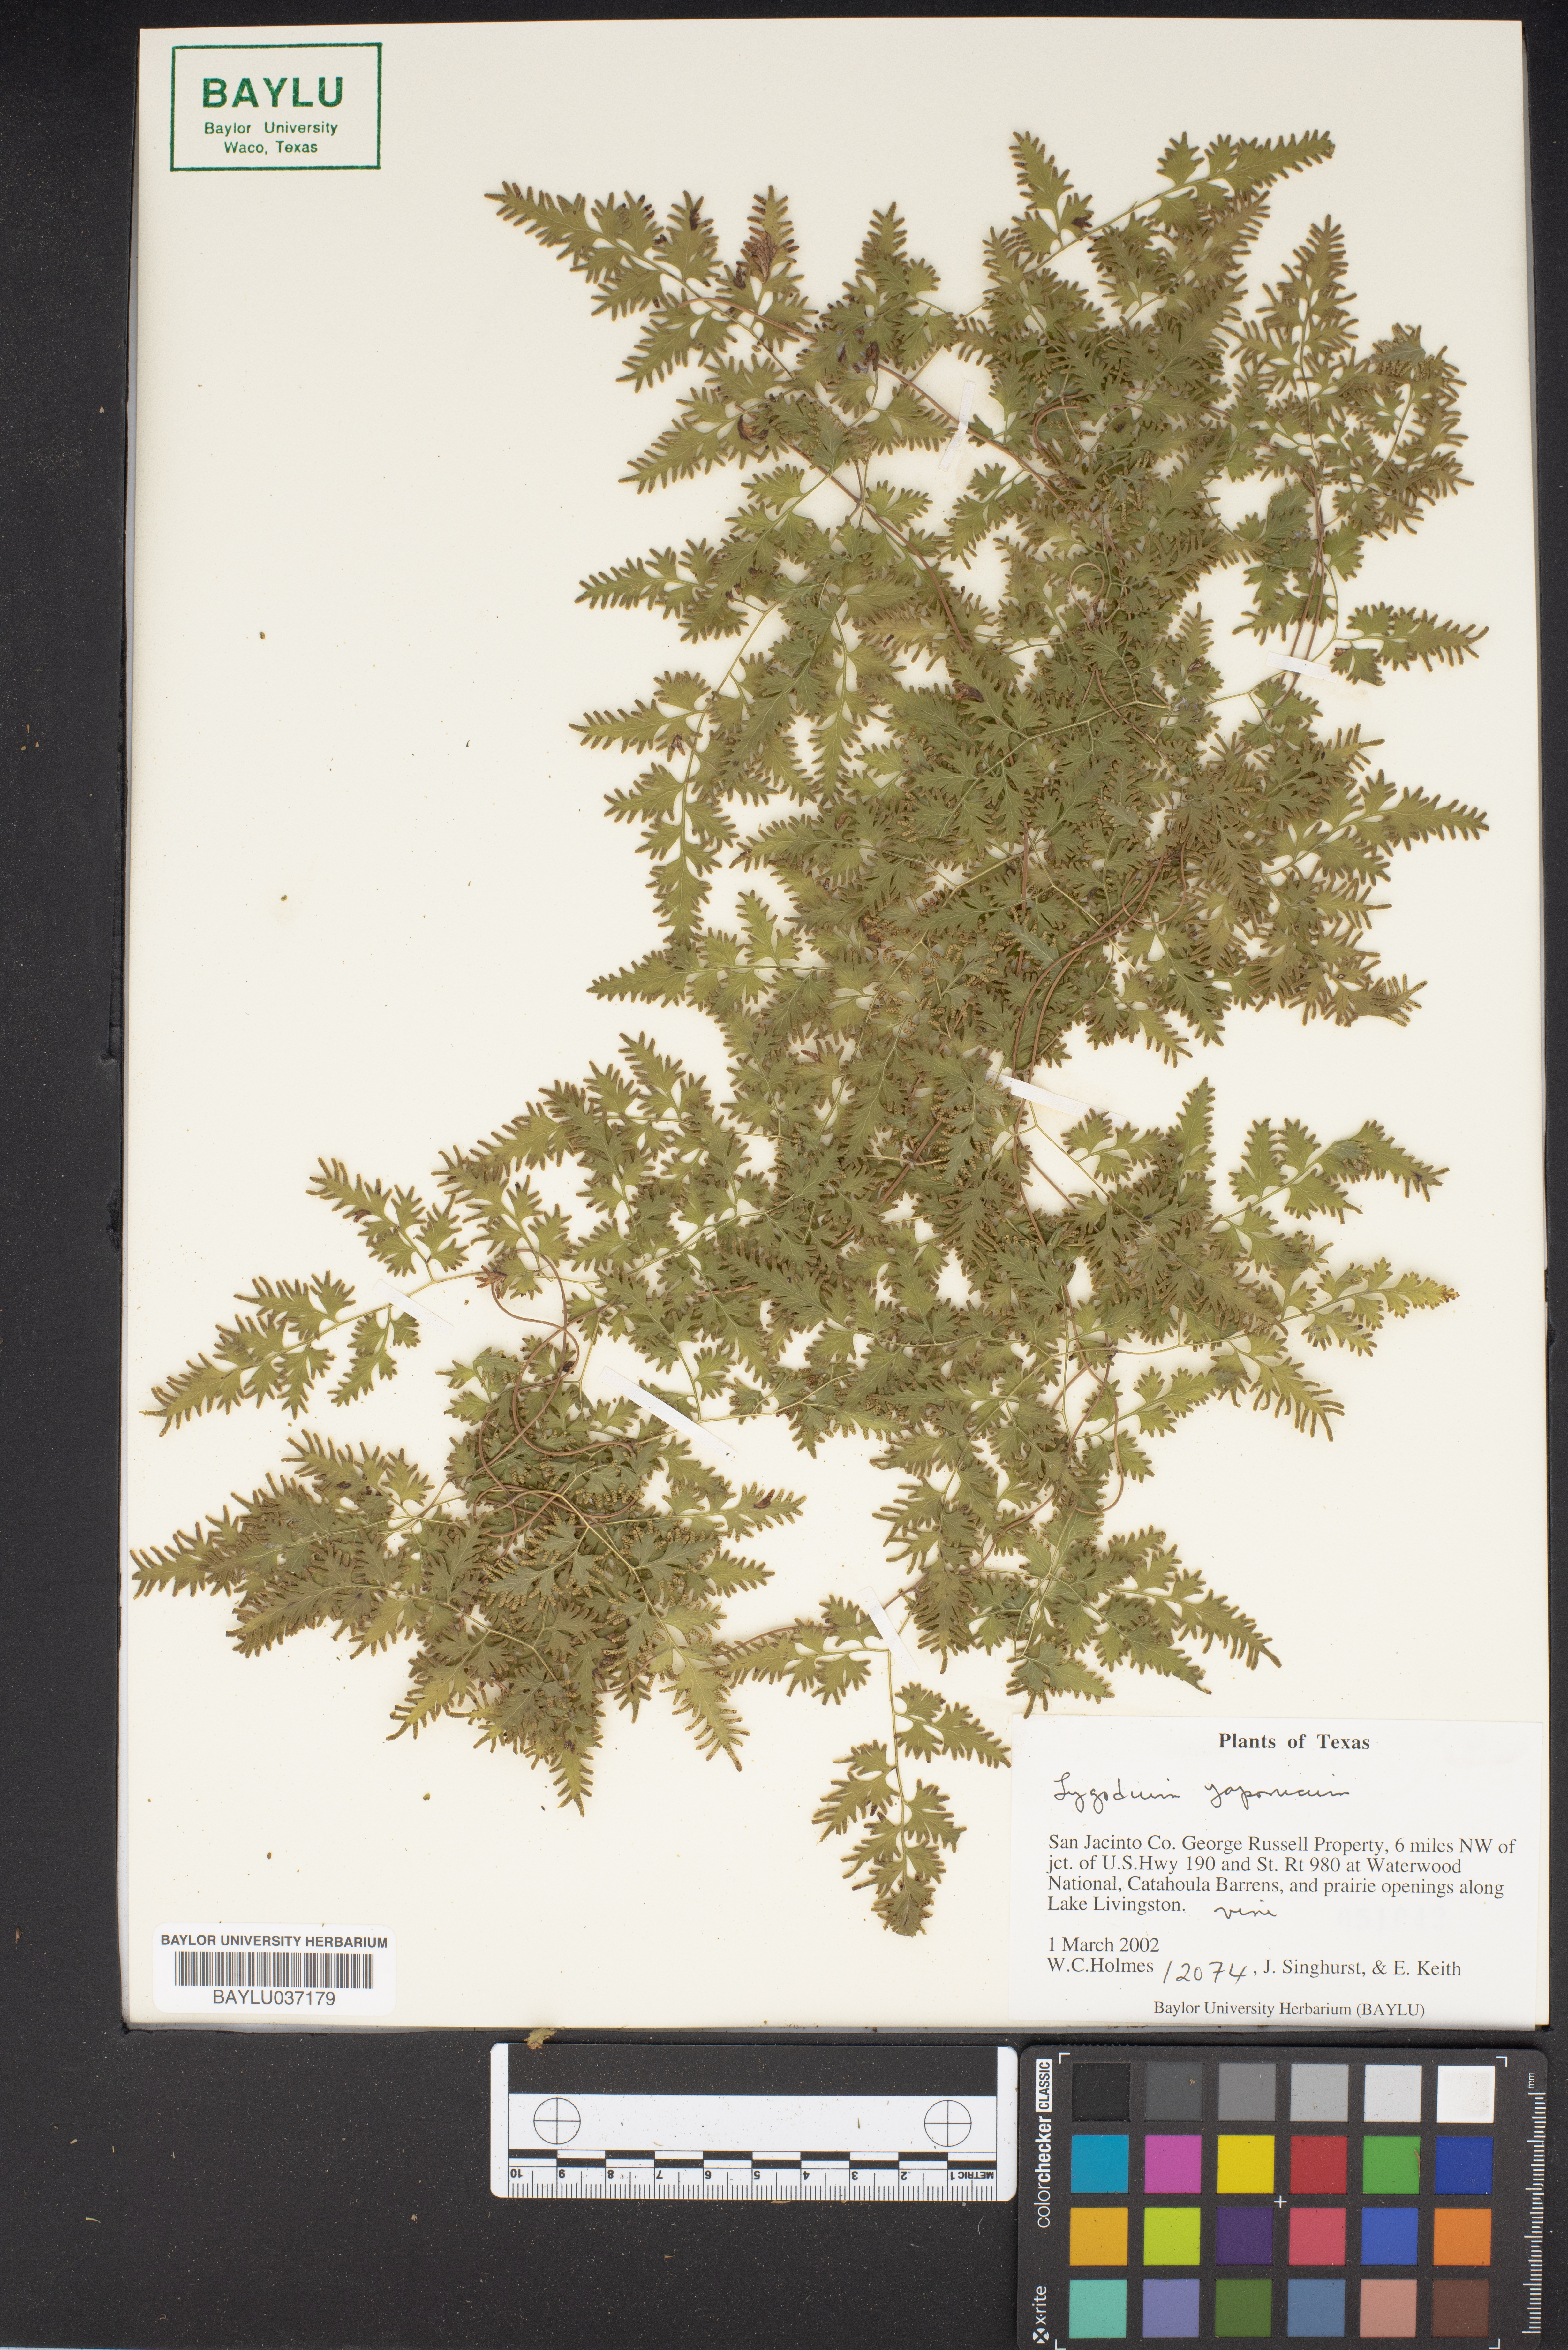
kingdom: Plantae
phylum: Tracheophyta
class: Polypodiopsida
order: Schizaeales
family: Lygodiaceae
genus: Lygodium
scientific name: Lygodium
